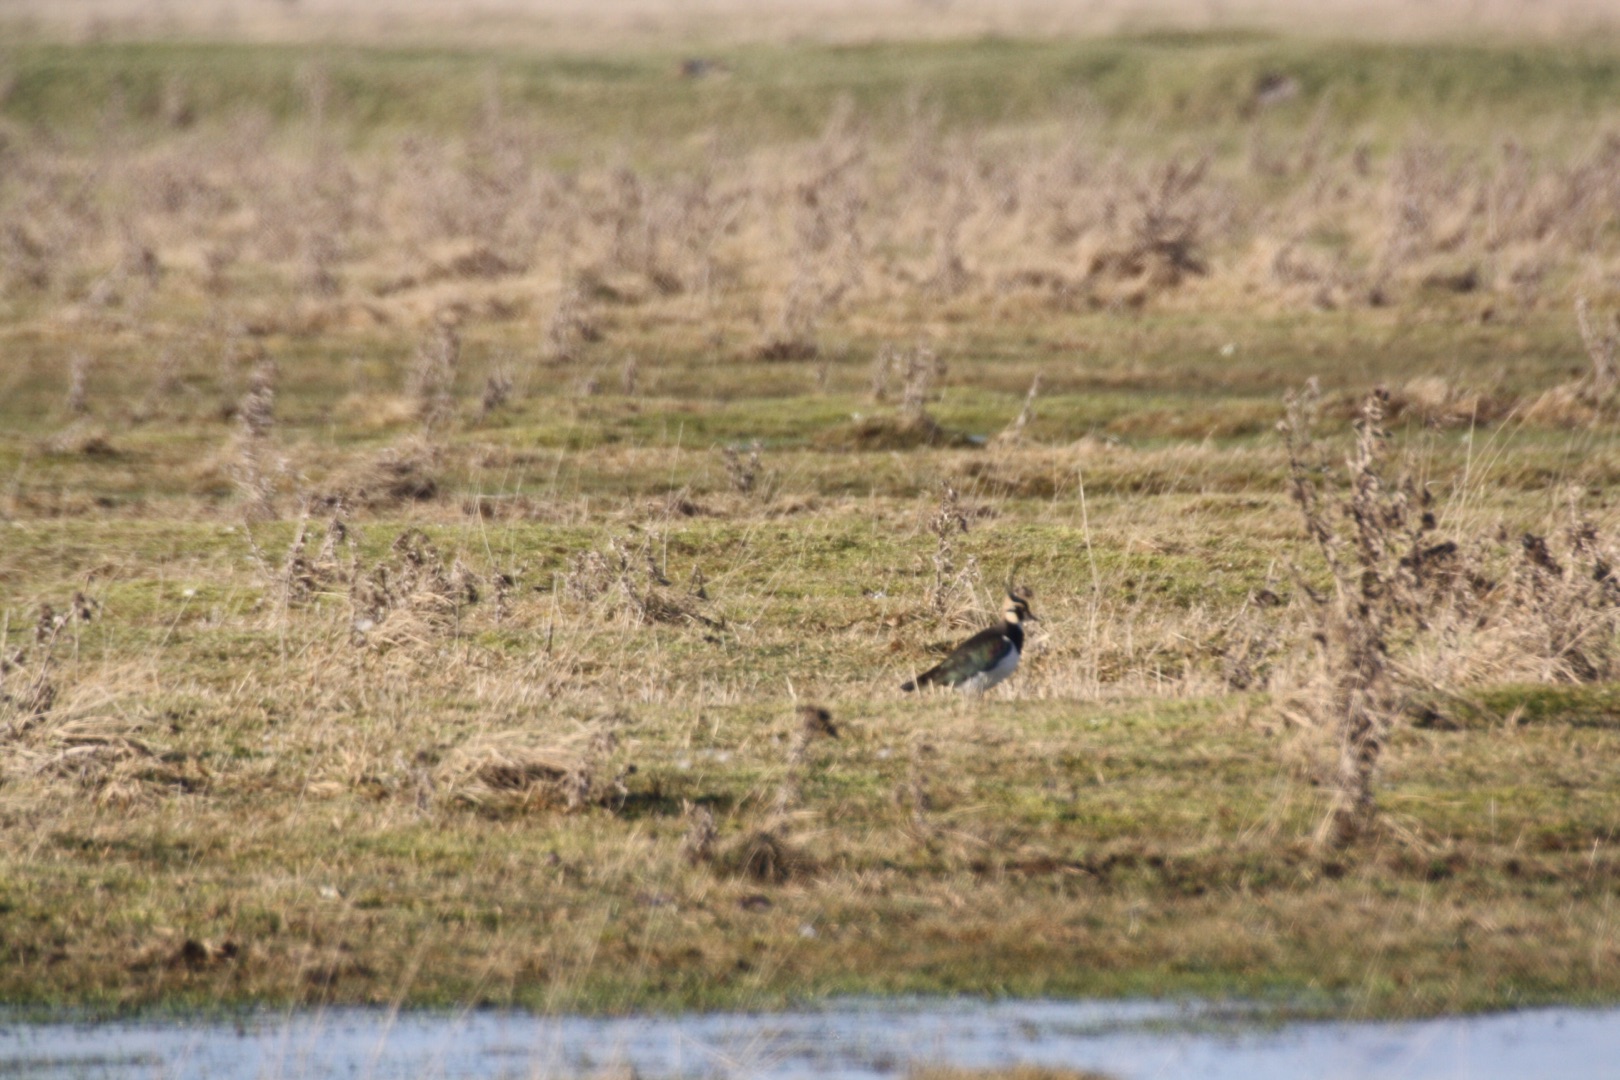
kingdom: Animalia
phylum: Chordata
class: Aves
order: Charadriiformes
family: Charadriidae
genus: Vanellus
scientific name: Vanellus vanellus
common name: Vibe
